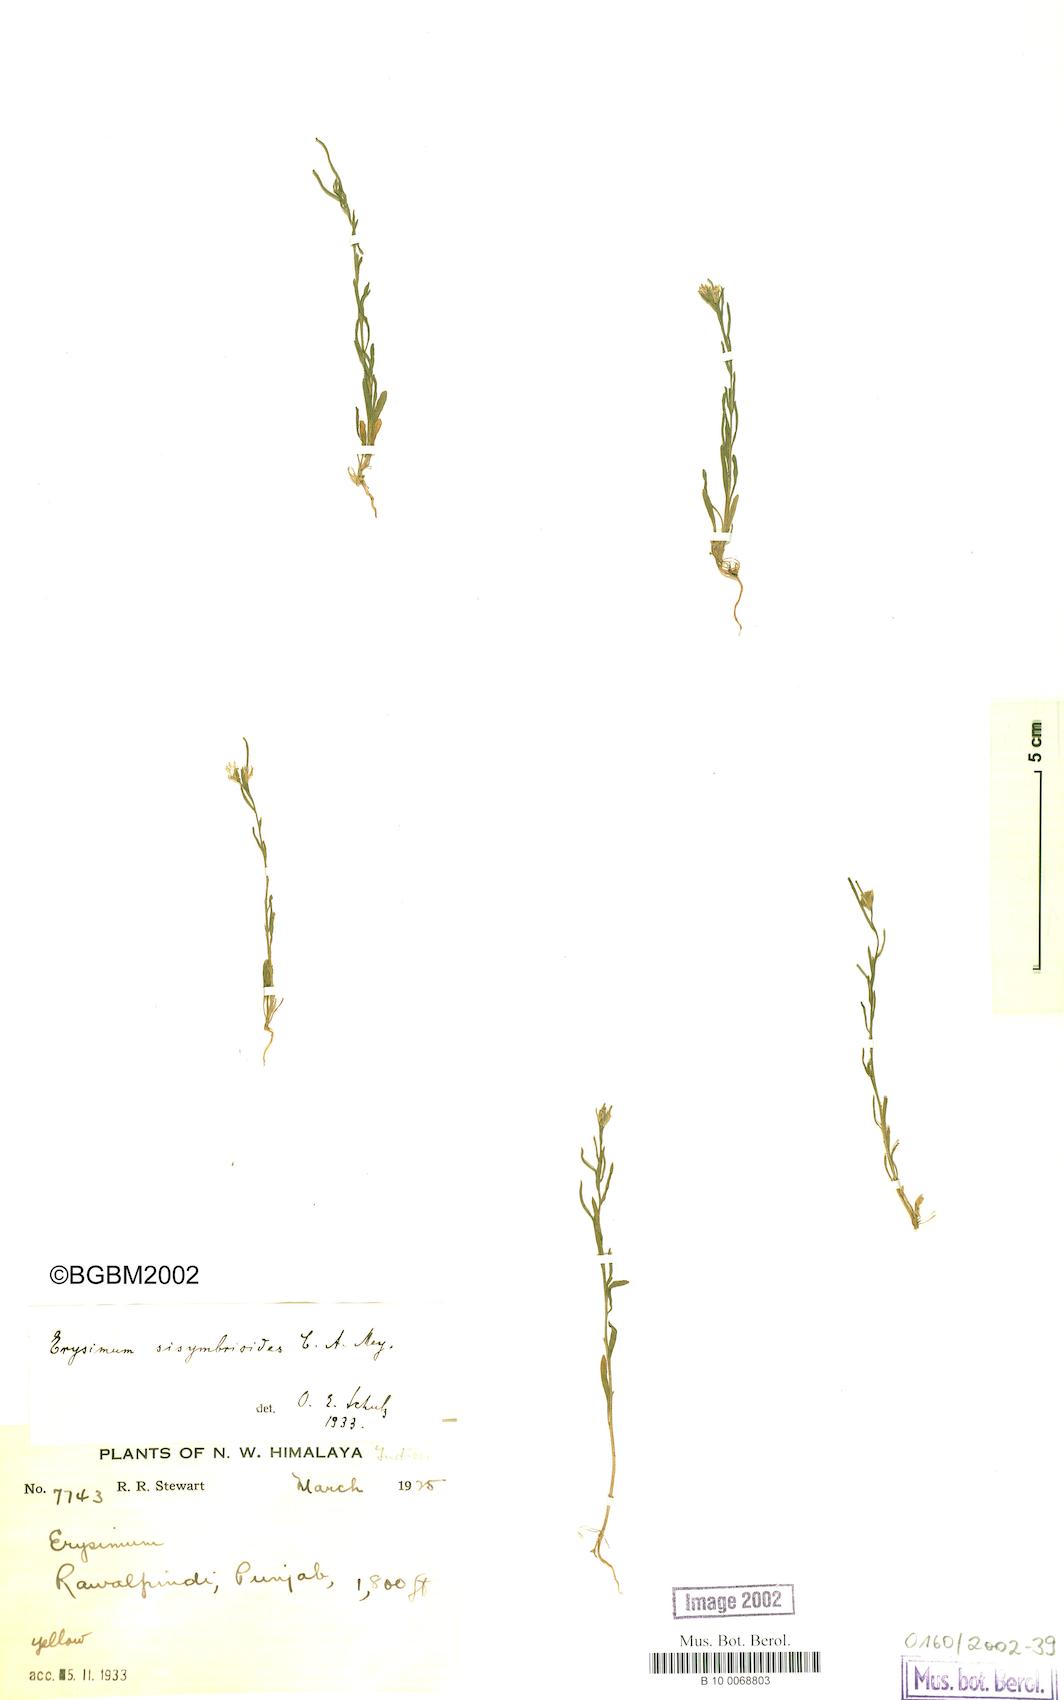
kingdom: Plantae
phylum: Tracheophyta
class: Magnoliopsida
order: Brassicales
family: Brassicaceae
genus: Erysimum
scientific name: Erysimum sisymbrioides
